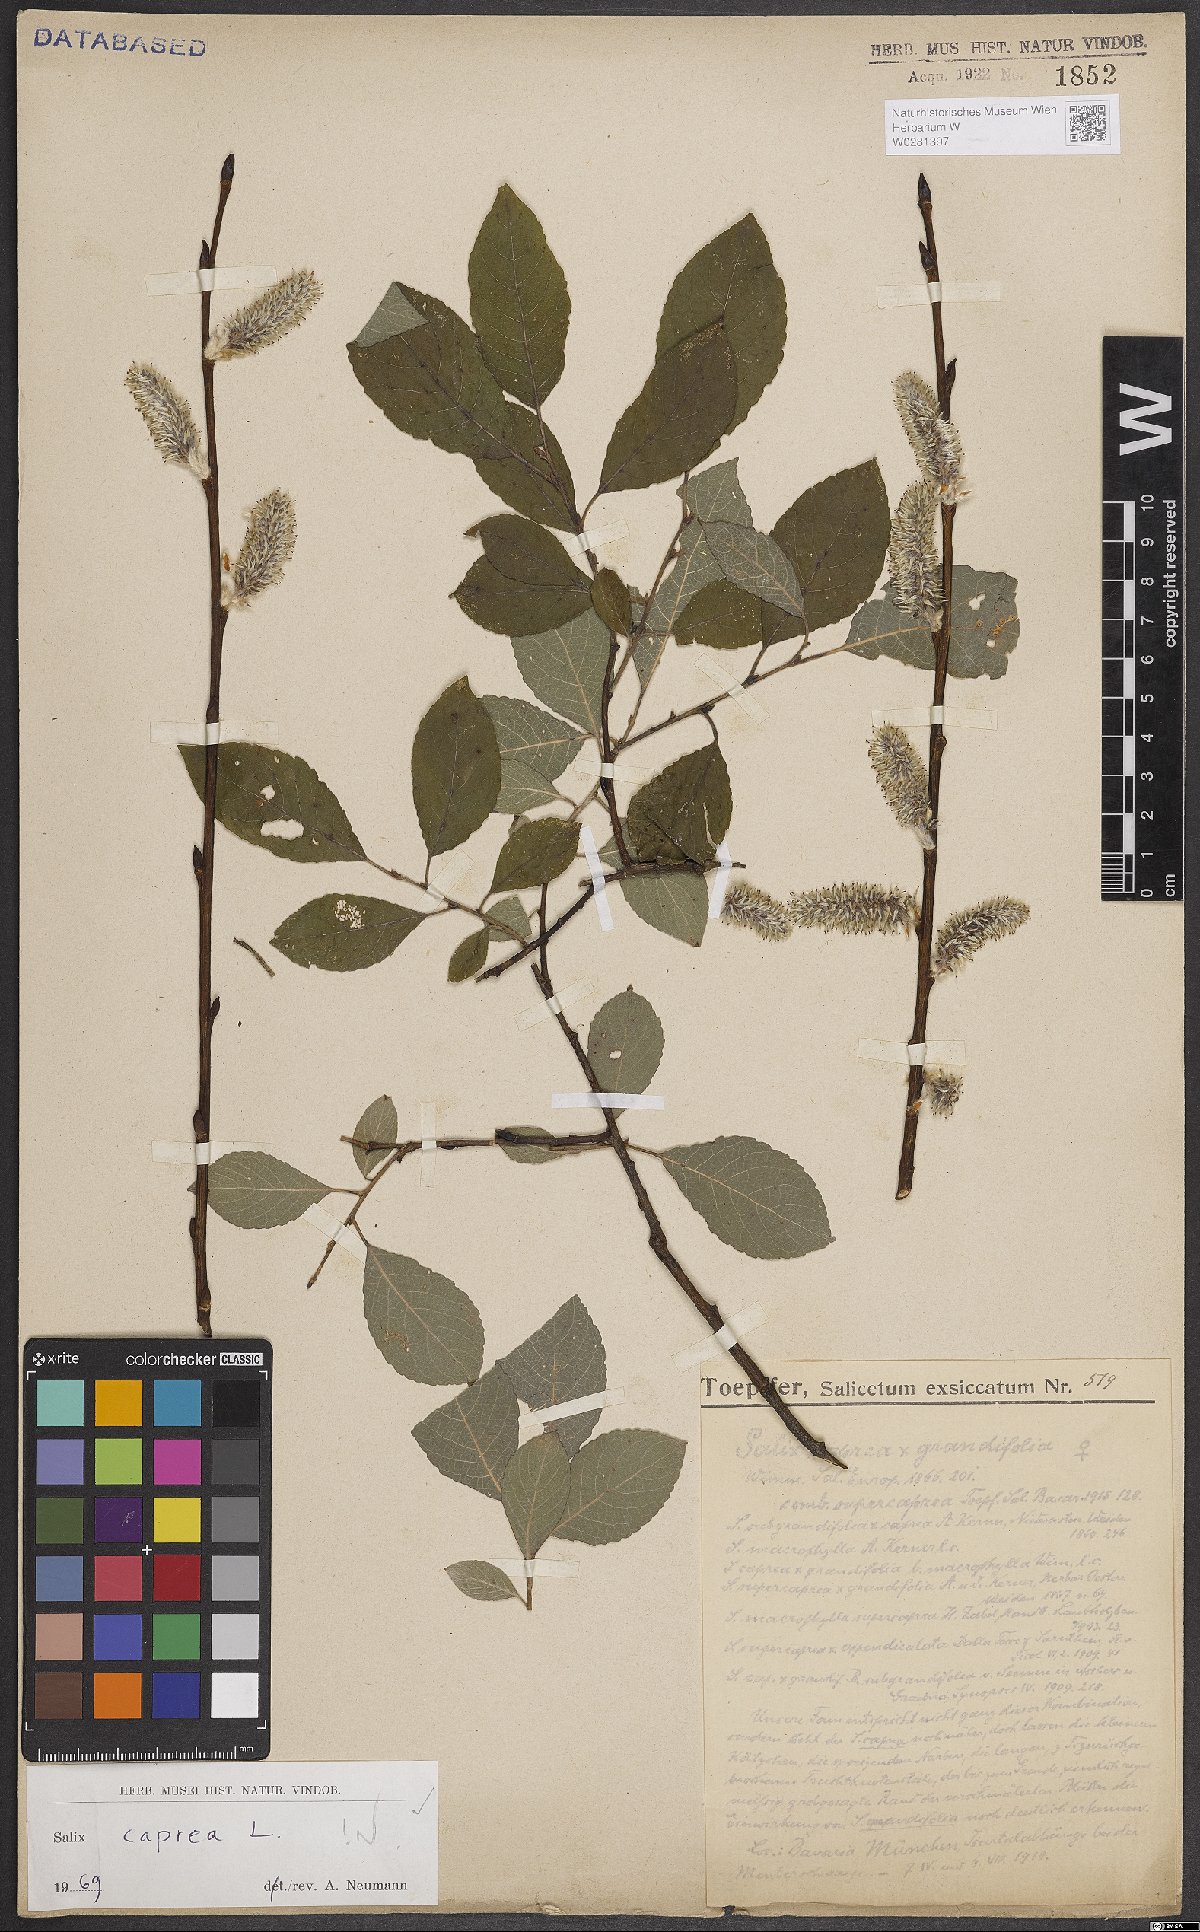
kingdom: Plantae
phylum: Tracheophyta
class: Magnoliopsida
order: Malpighiales
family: Salicaceae
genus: Salix
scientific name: Salix caprea
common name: Goat willow
